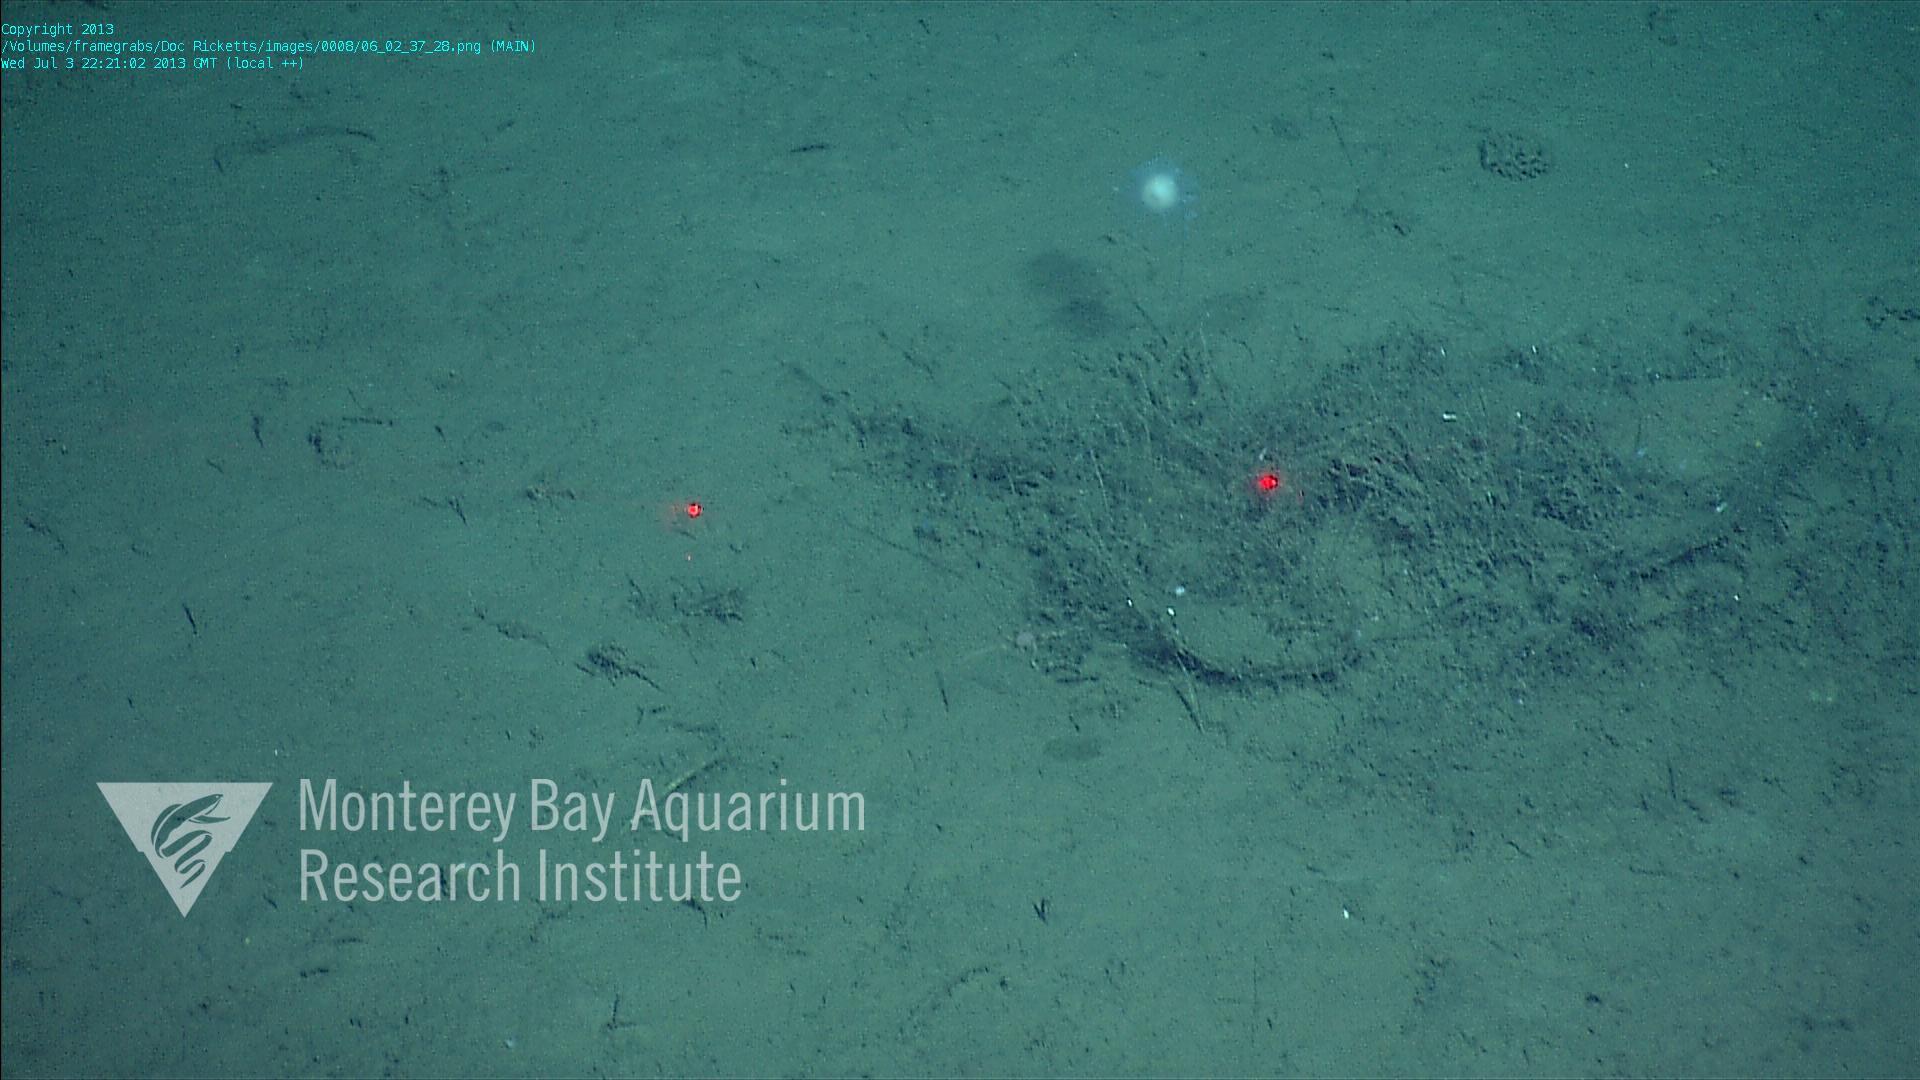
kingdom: Animalia
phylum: Porifera
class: Demospongiae
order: Poecilosclerida
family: Cladorhizidae
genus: Cladorhiza
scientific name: Cladorhiza
